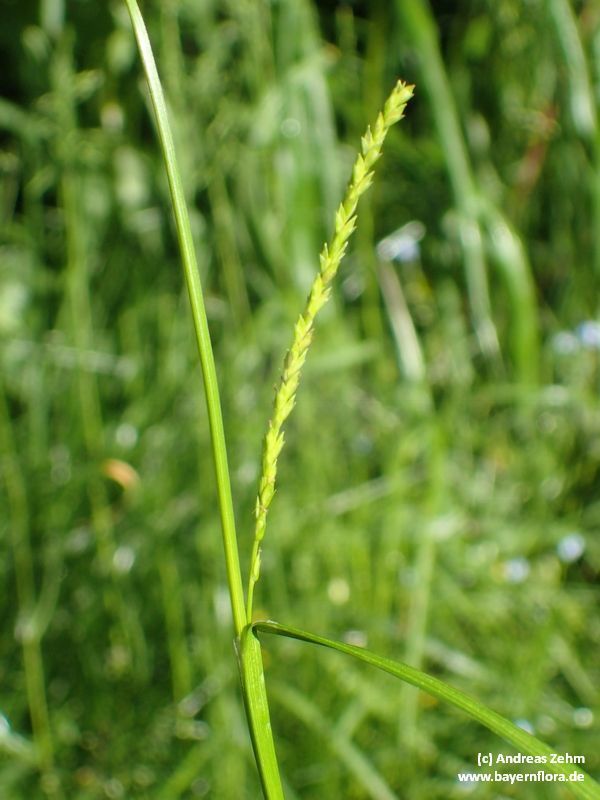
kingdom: Plantae
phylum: Tracheophyta
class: Liliopsida
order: Poales
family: Cyperaceae
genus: Carex
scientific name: Carex strigosa
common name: Thin-spiked wood-sedge
